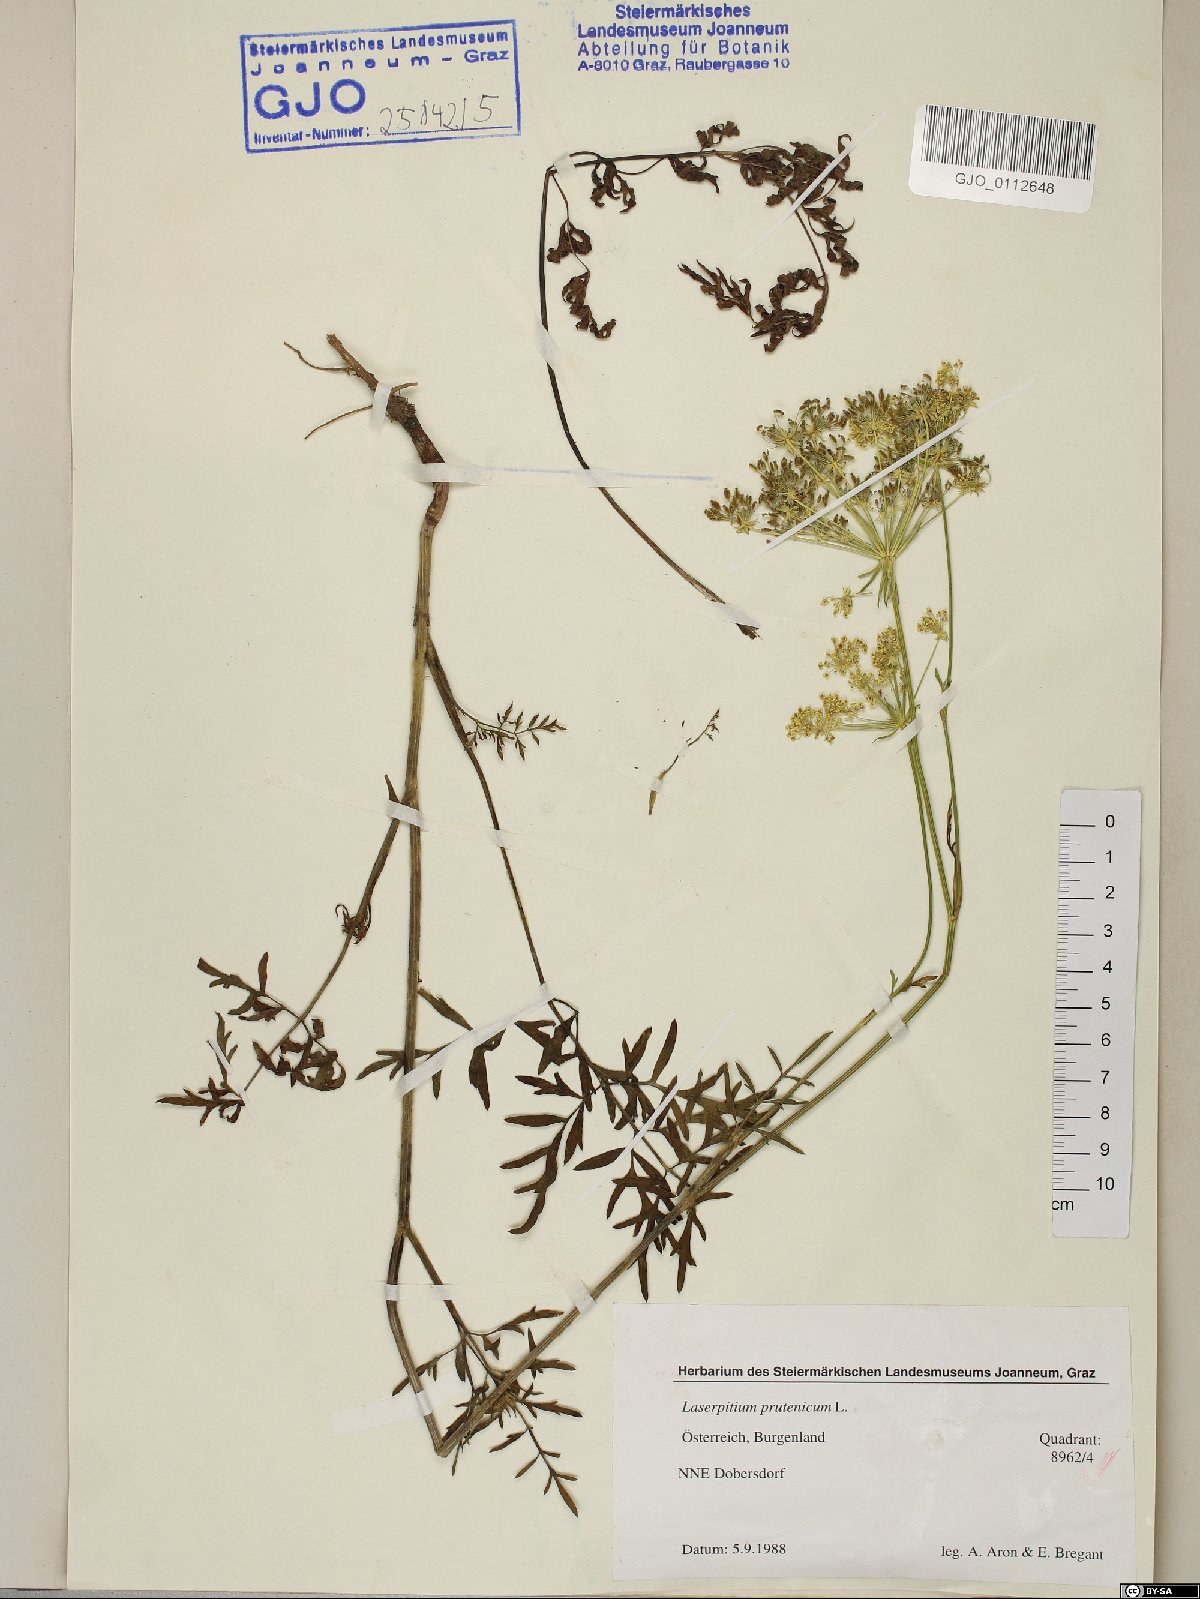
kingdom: Plantae
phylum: Tracheophyta
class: Magnoliopsida
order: Apiales
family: Apiaceae
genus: Silphiodaucus
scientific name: Silphiodaucus prutenicus
